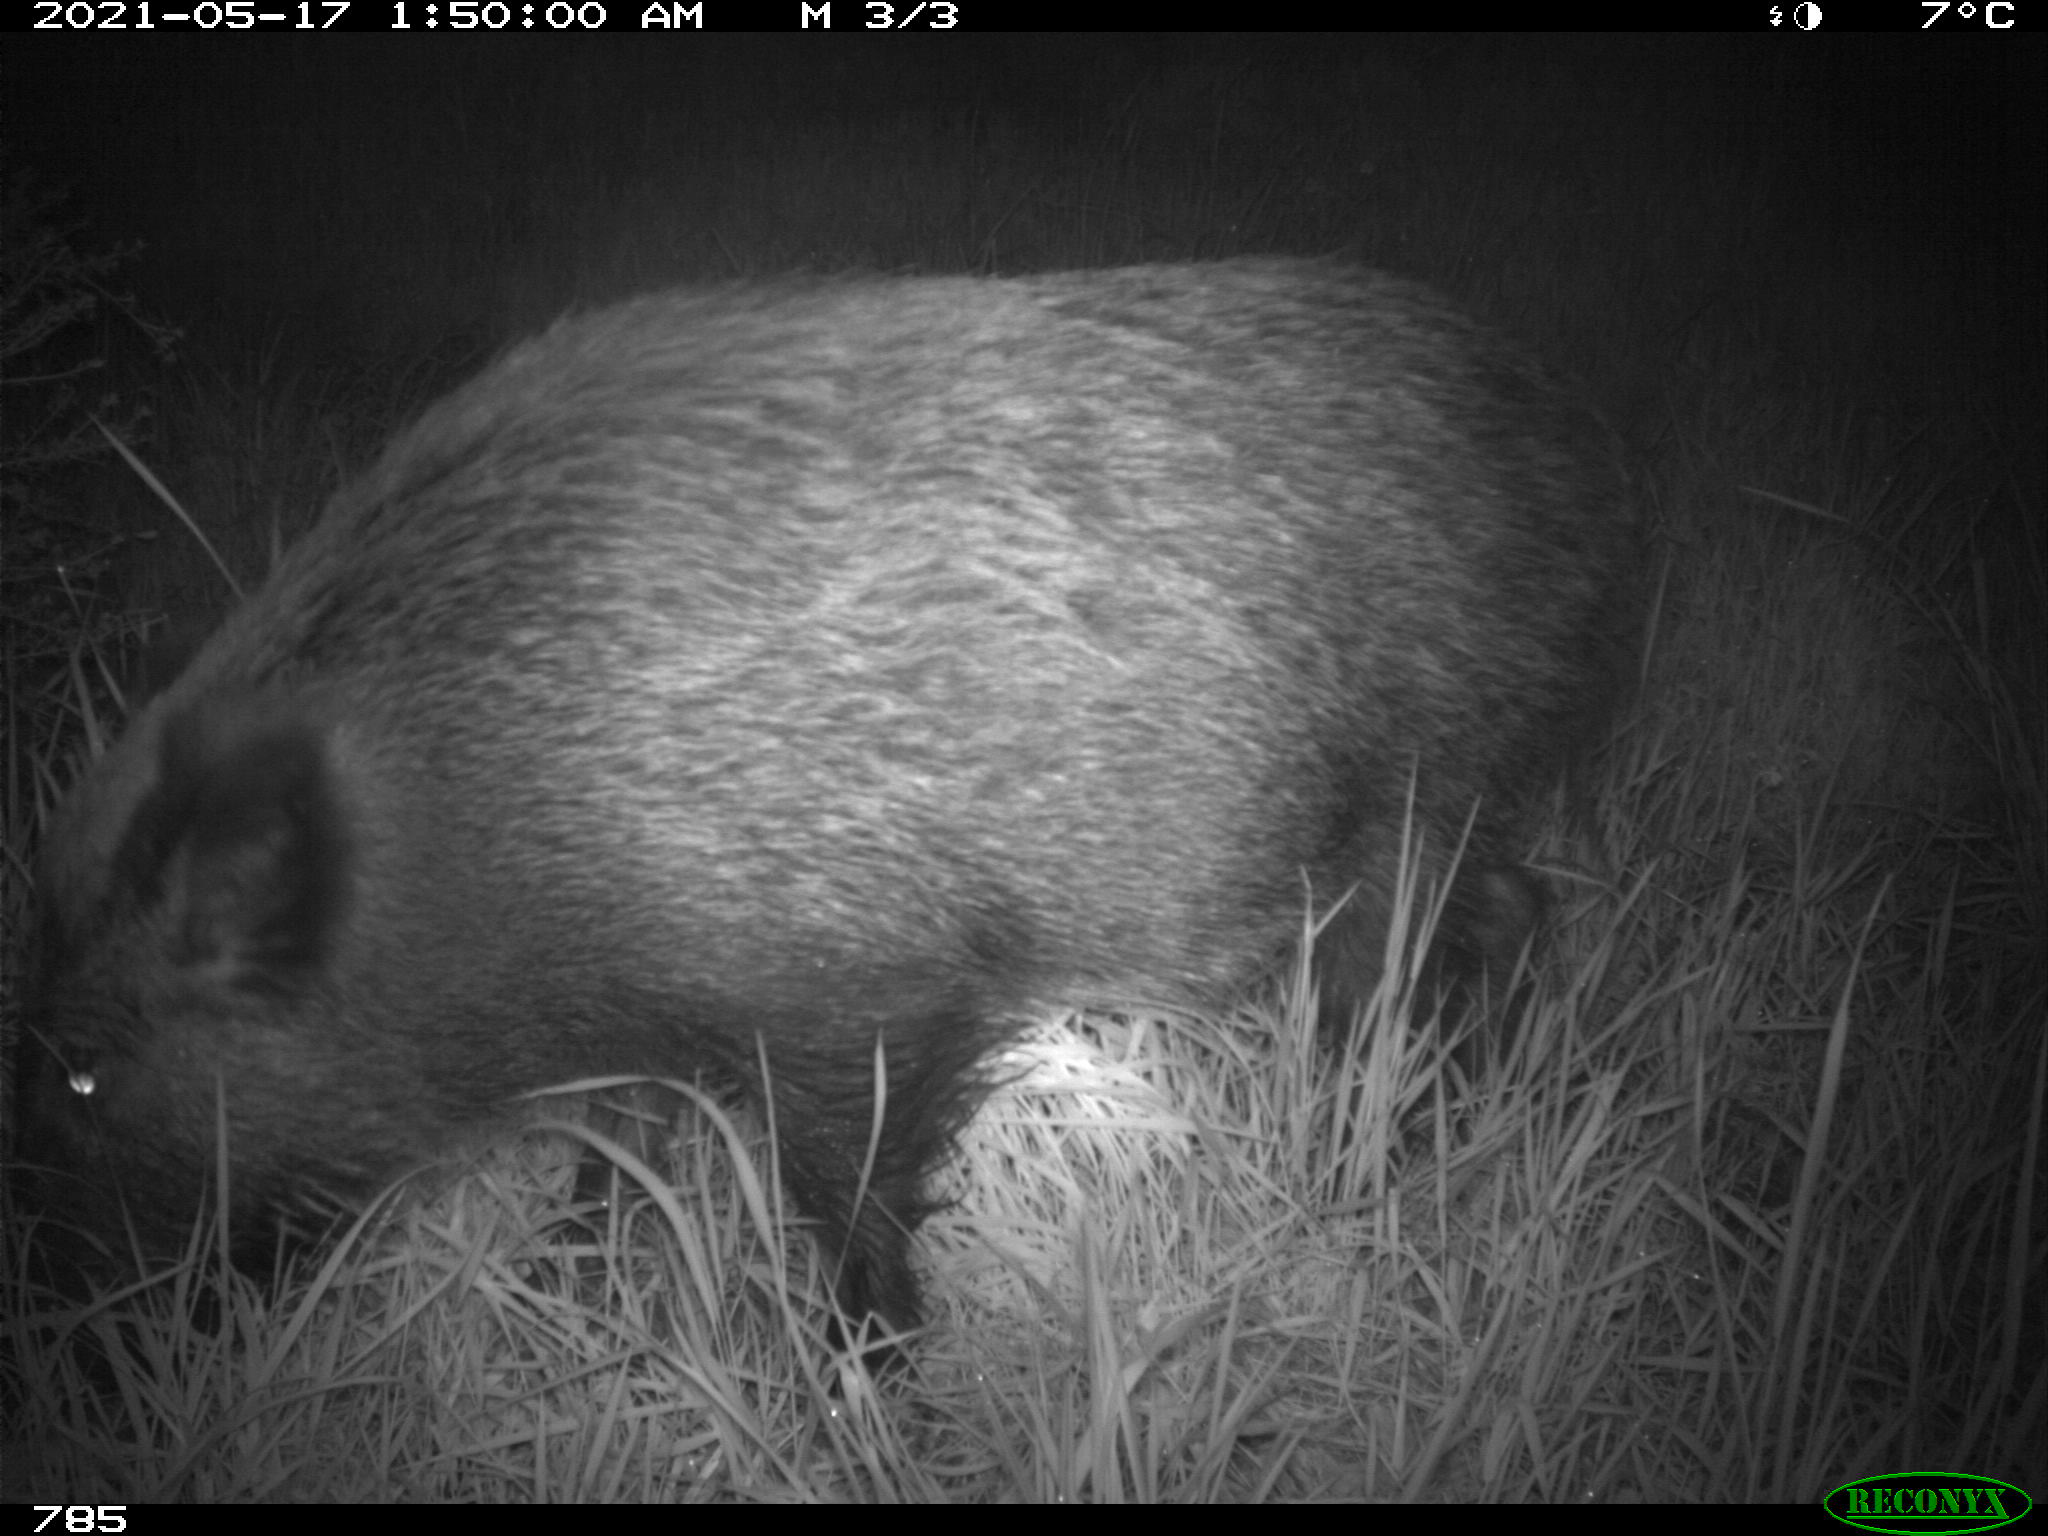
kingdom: Animalia
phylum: Chordata
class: Mammalia
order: Artiodactyla
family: Suidae
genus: Sus
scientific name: Sus scrofa
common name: Wild boar
